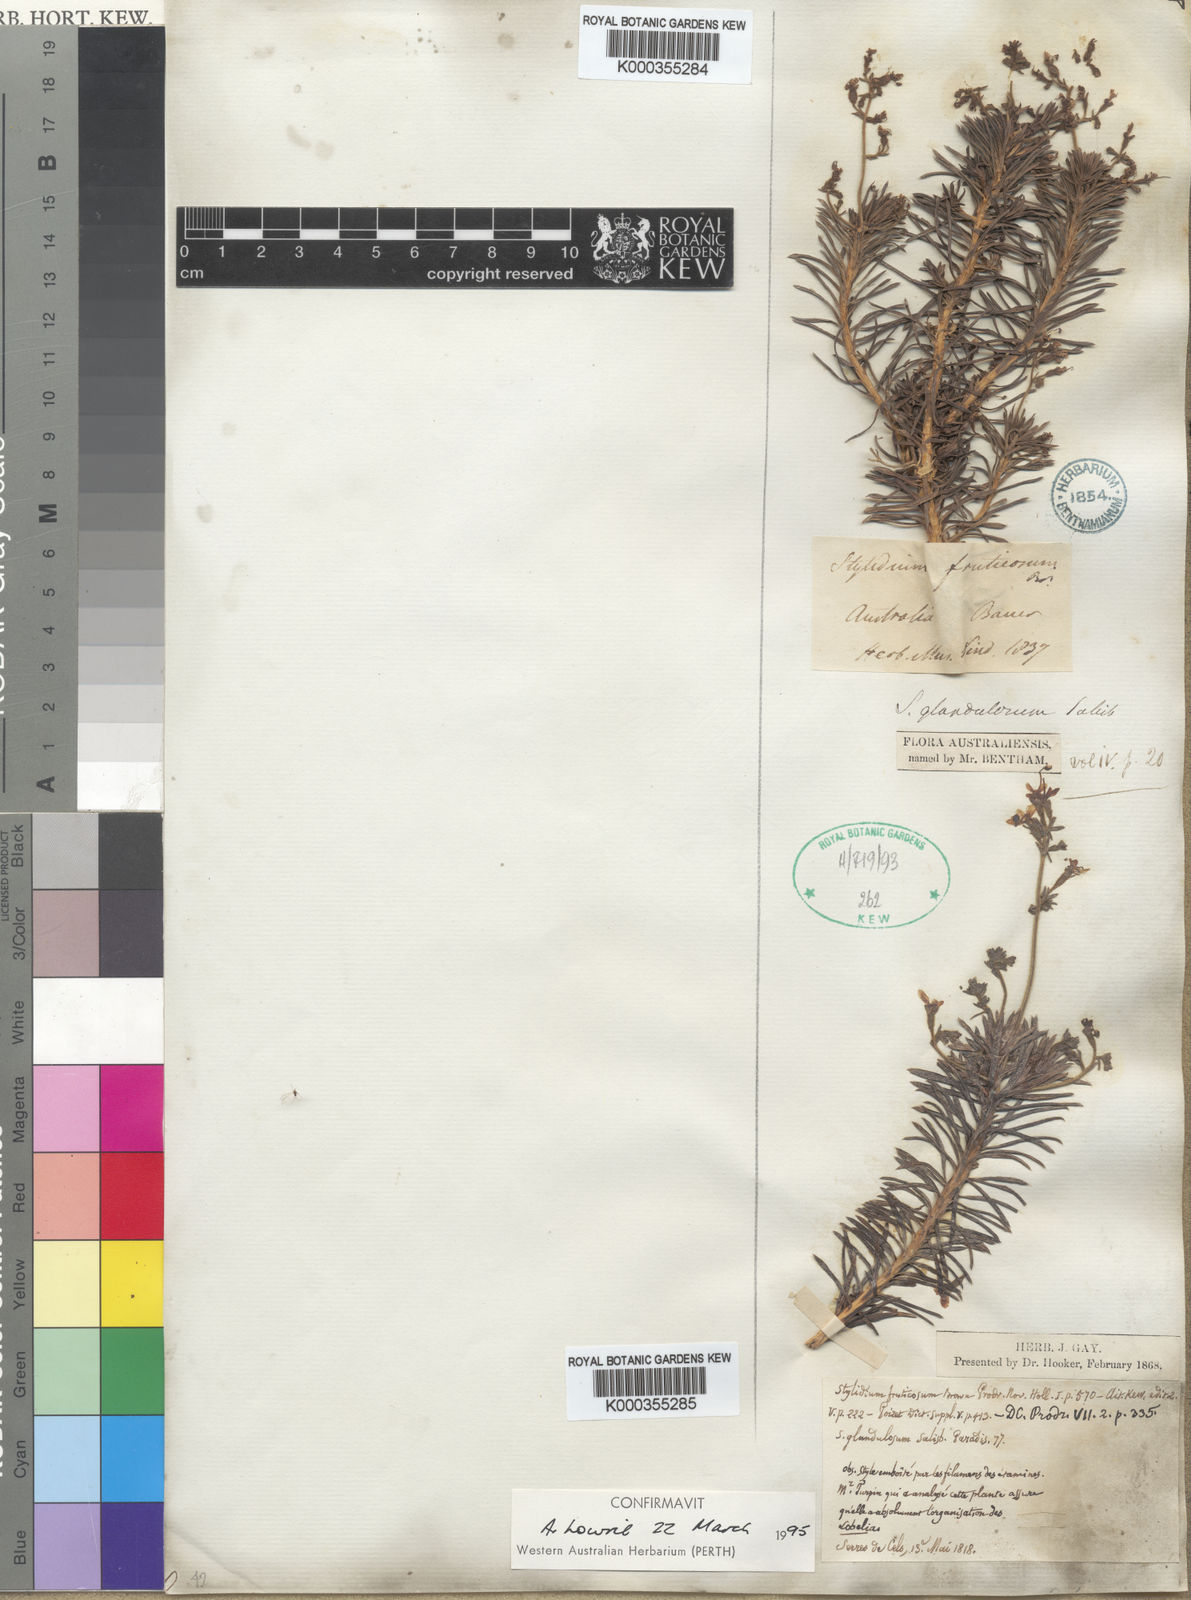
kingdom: Plantae
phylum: Tracheophyta
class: Magnoliopsida
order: Asterales
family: Stylidiaceae
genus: Stylidium
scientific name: Stylidium glandulosum
